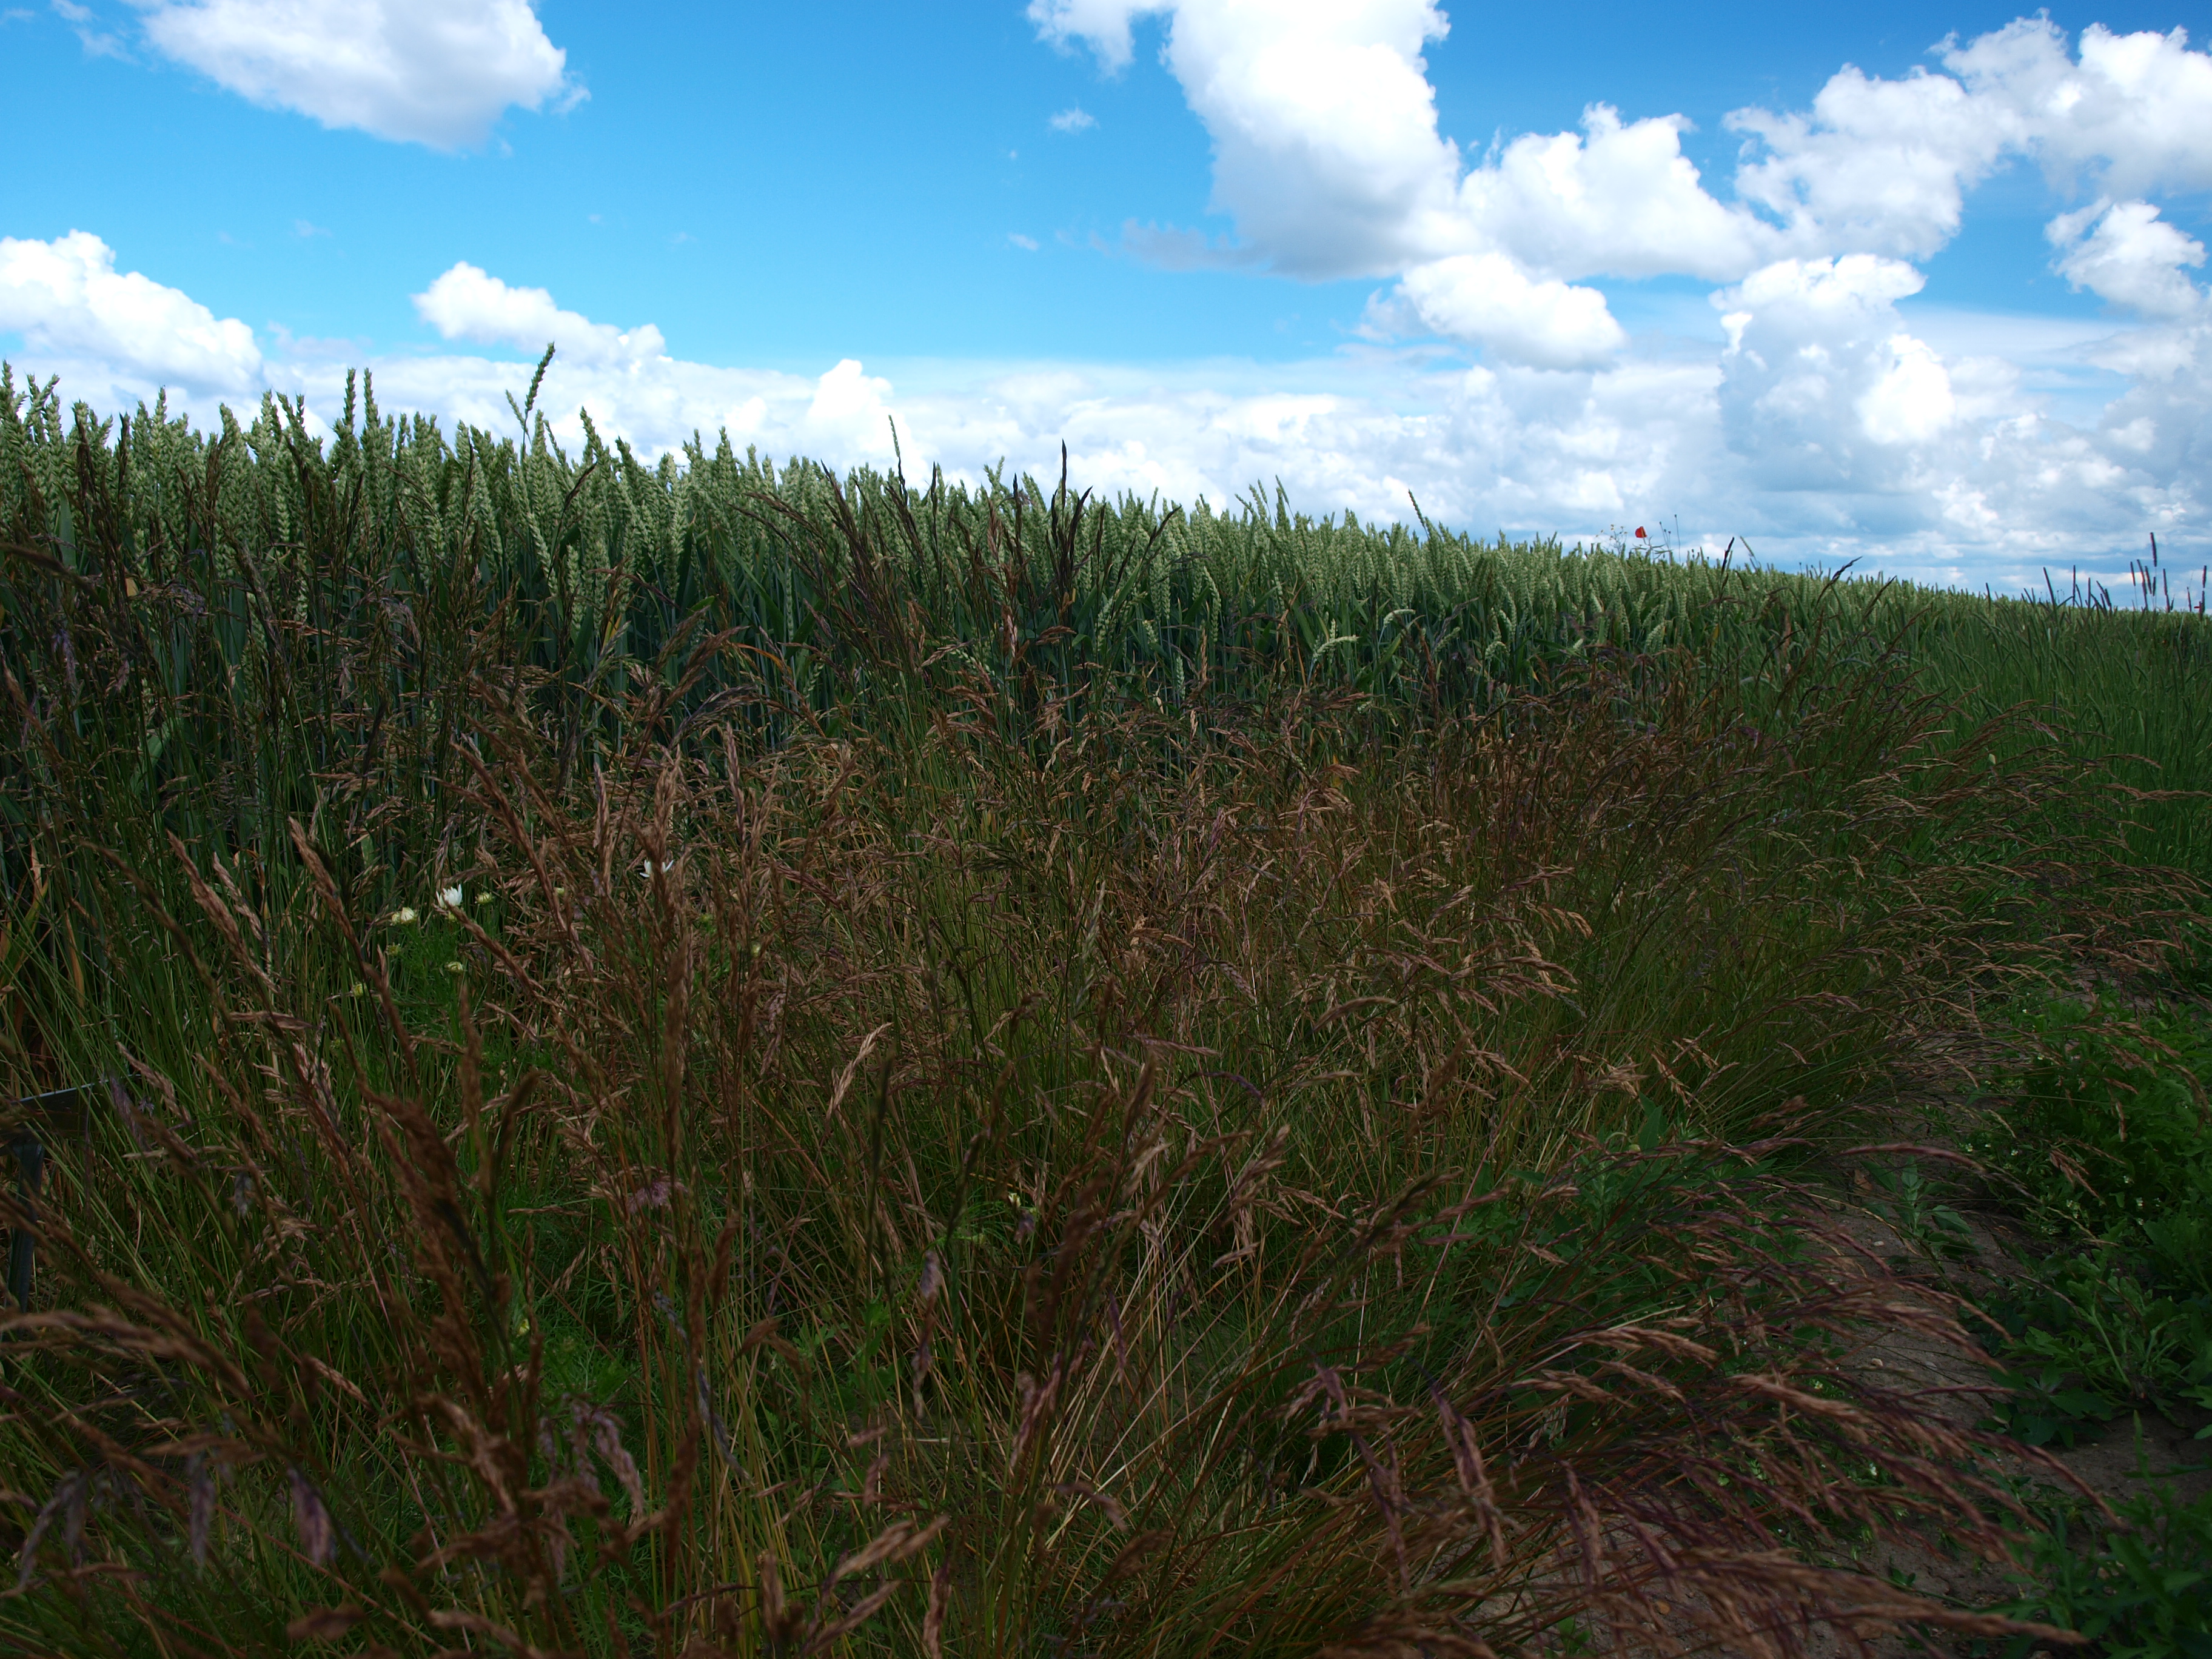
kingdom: Plantae
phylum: Tracheophyta
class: Liliopsida
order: Poales
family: Poaceae
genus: Festuca
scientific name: Festuca rubra
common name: Red fescue
